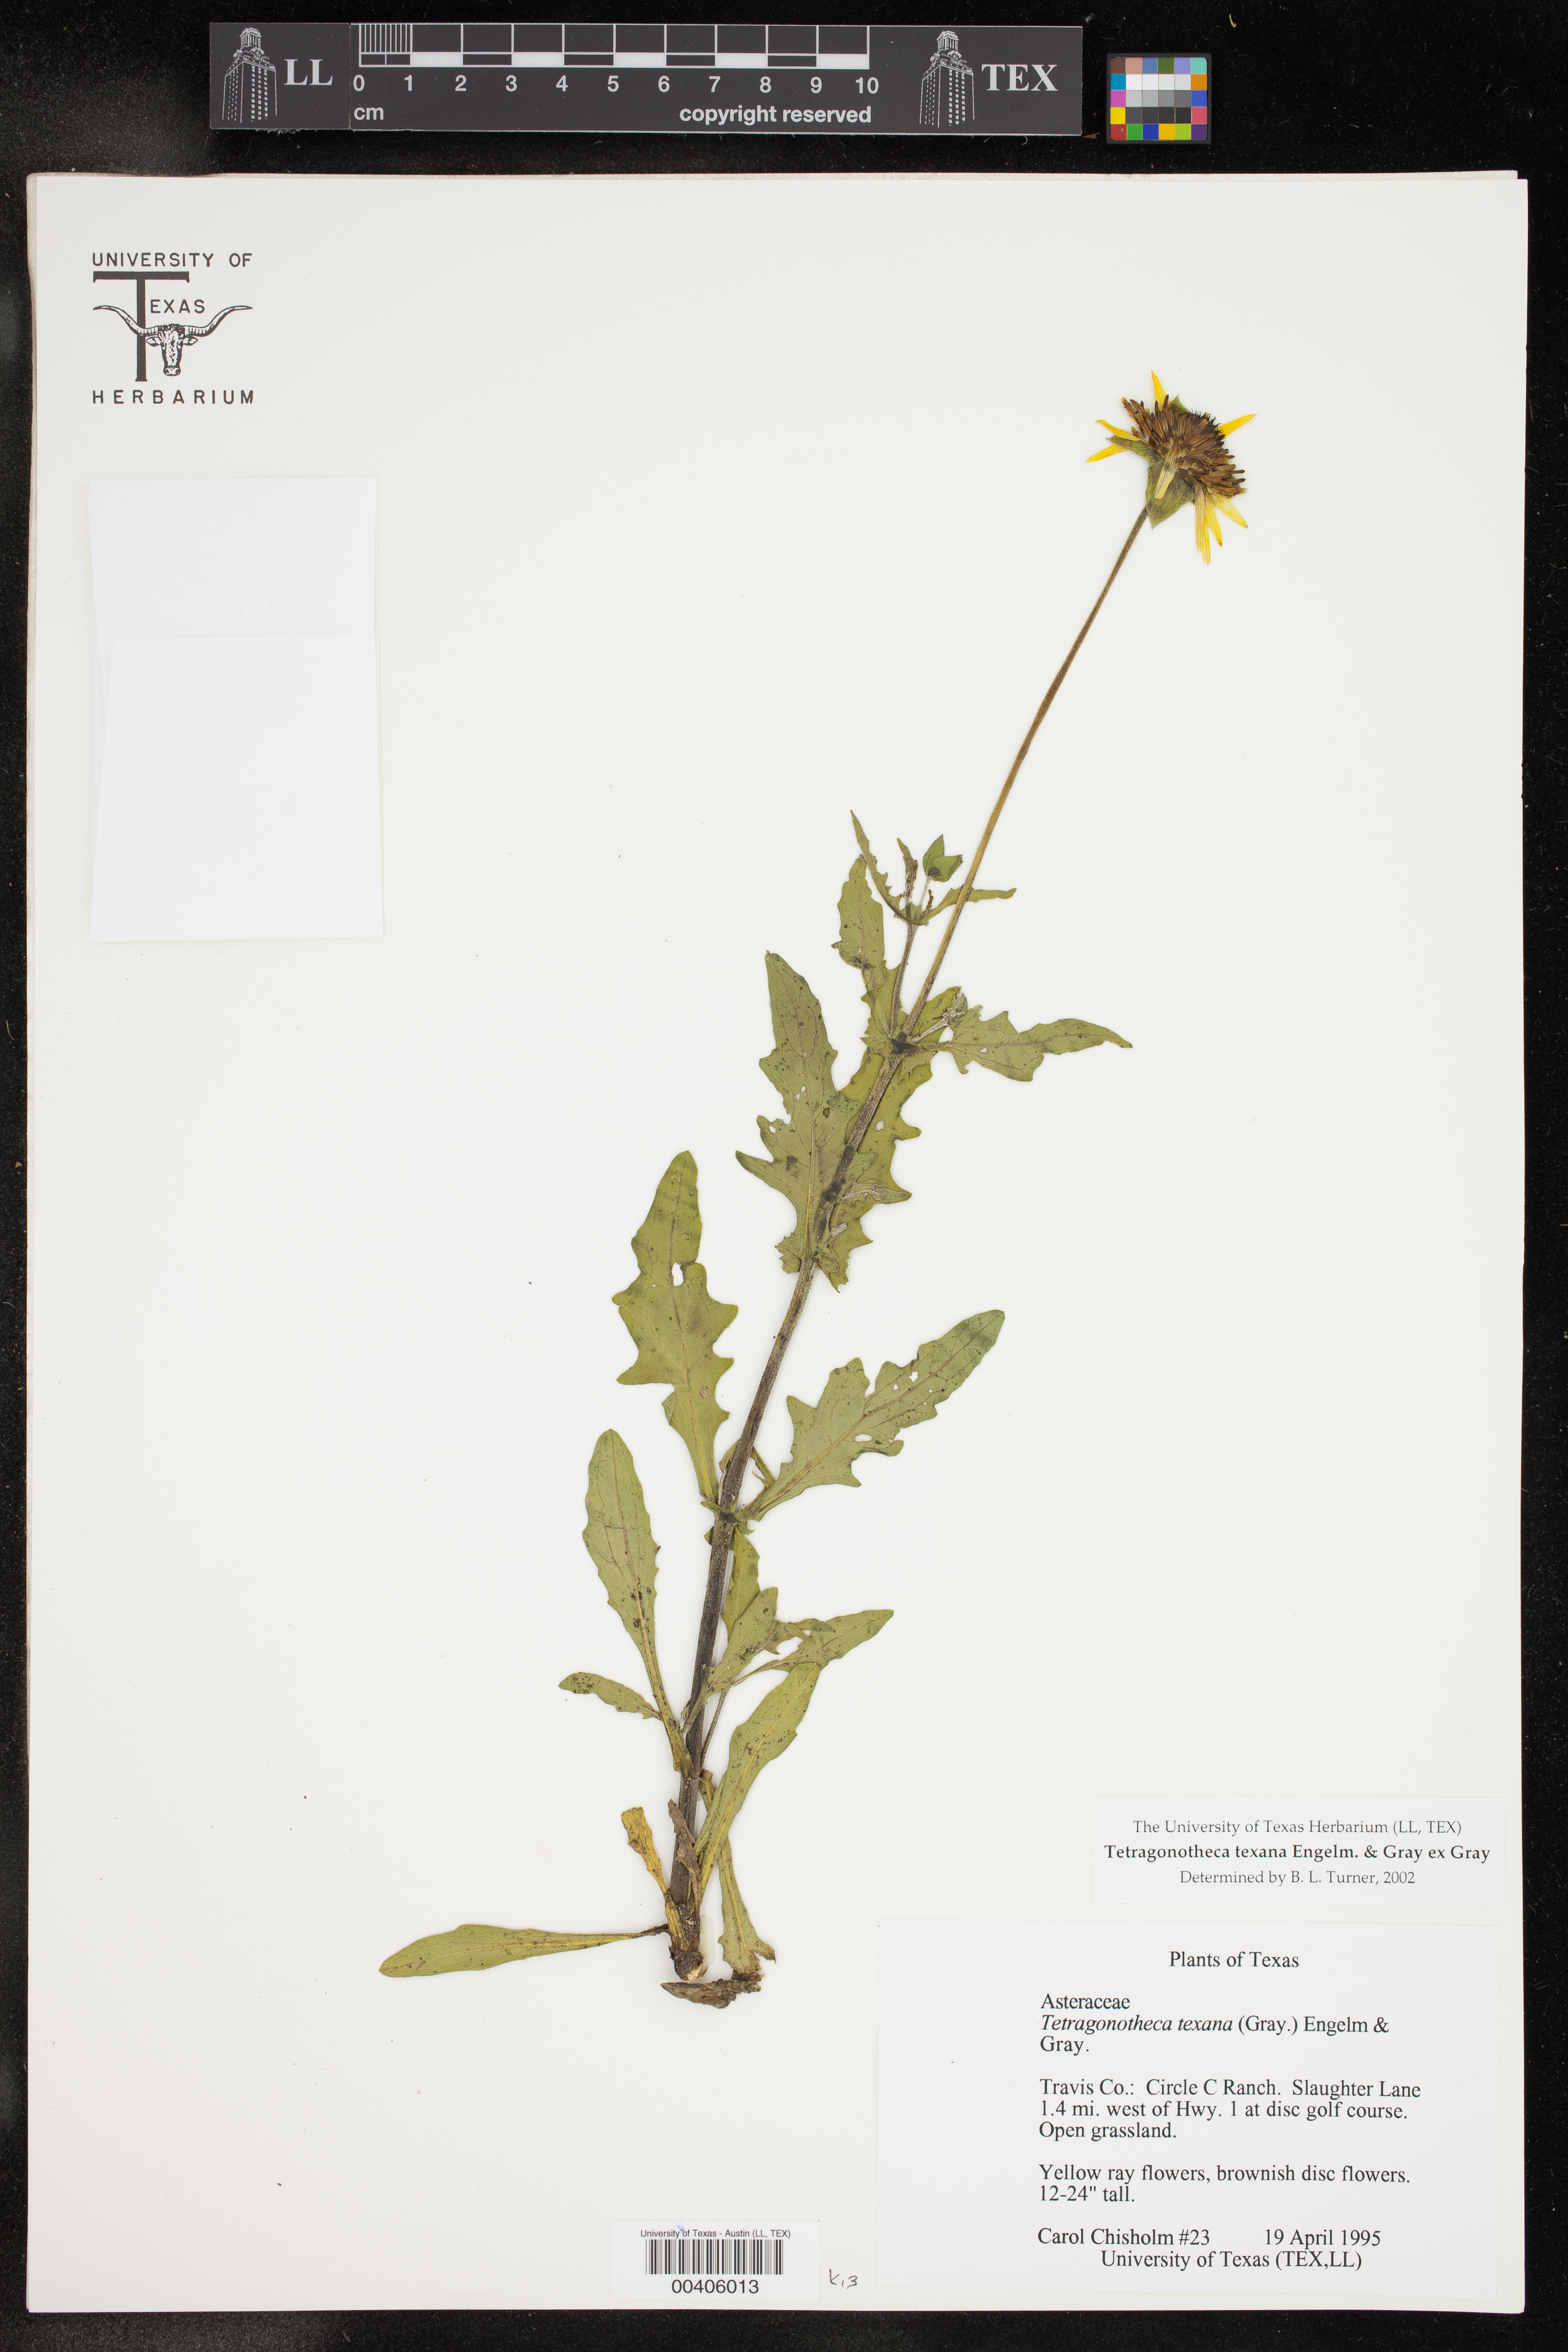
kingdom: Plantae
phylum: Tracheophyta
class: Magnoliopsida
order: Asterales
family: Asteraceae
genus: Tetragonotheca
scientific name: Tetragonotheca texana
